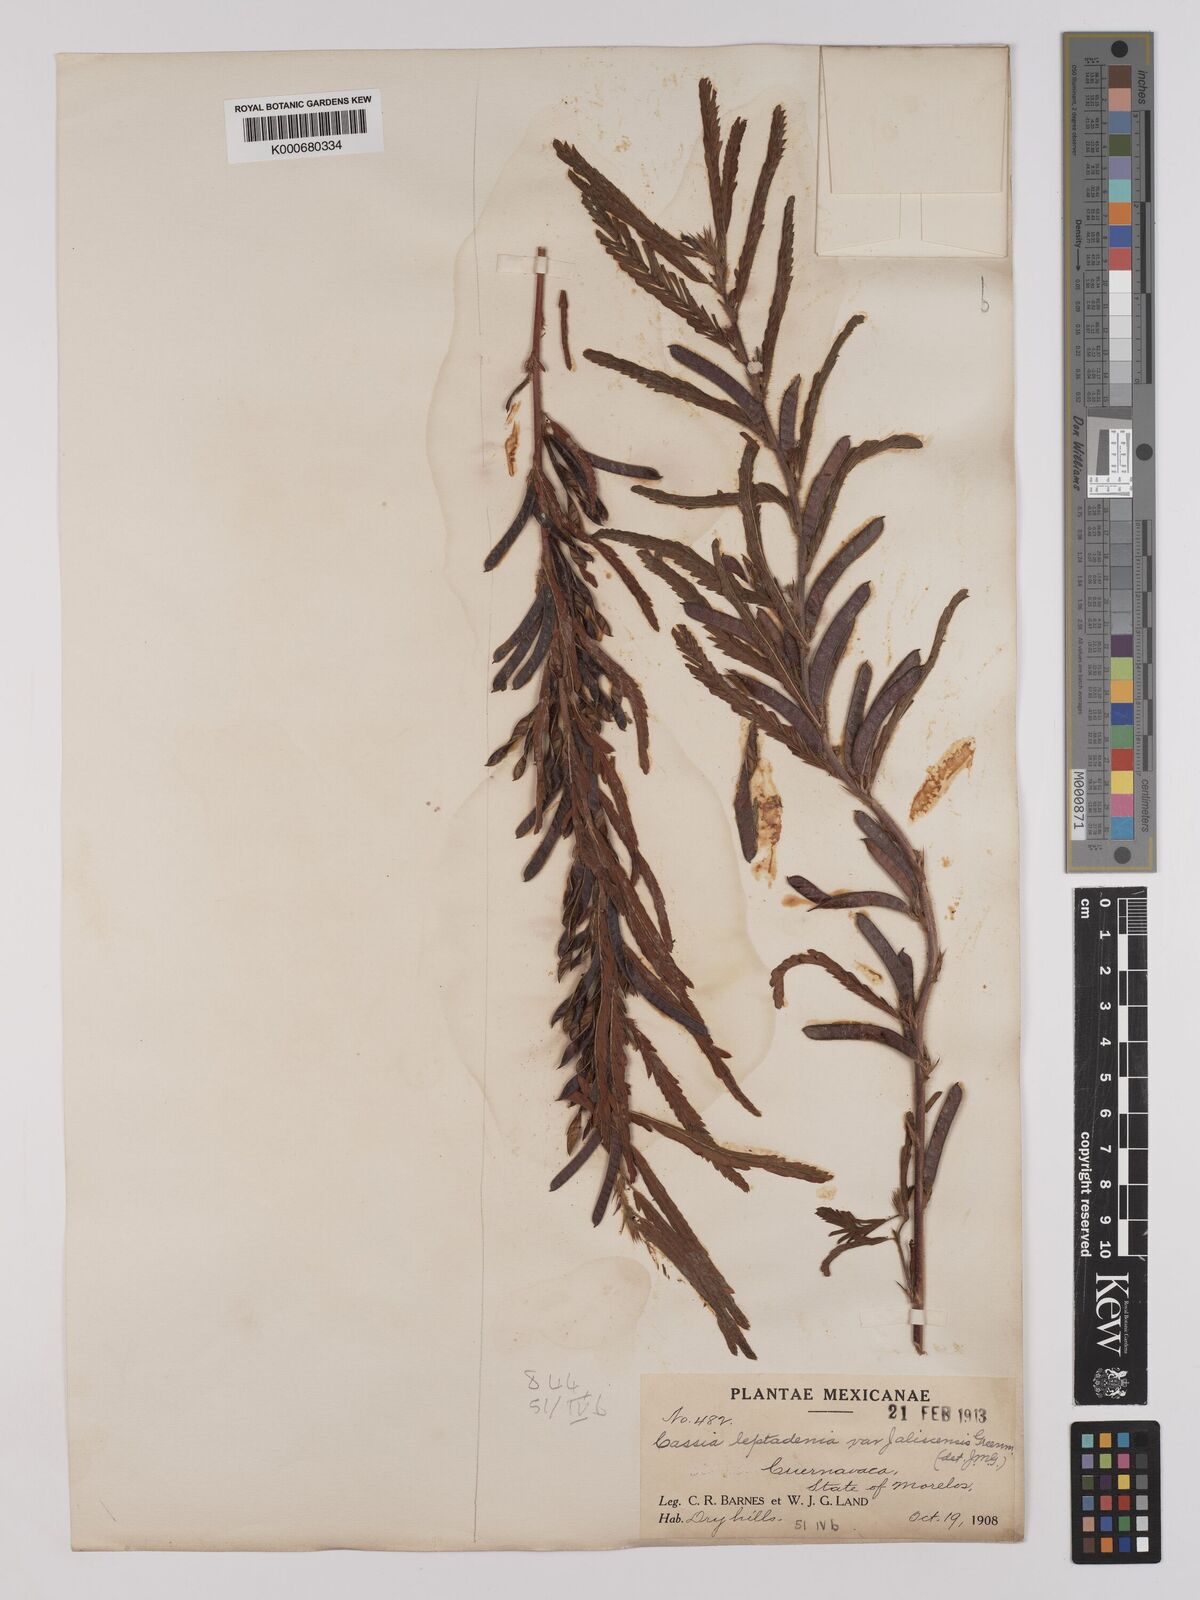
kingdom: Plantae
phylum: Tracheophyta
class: Magnoliopsida
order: Fabales
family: Fabaceae
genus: Chamaecrista
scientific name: Chamaecrista nictitans
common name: Sensitive cassia
